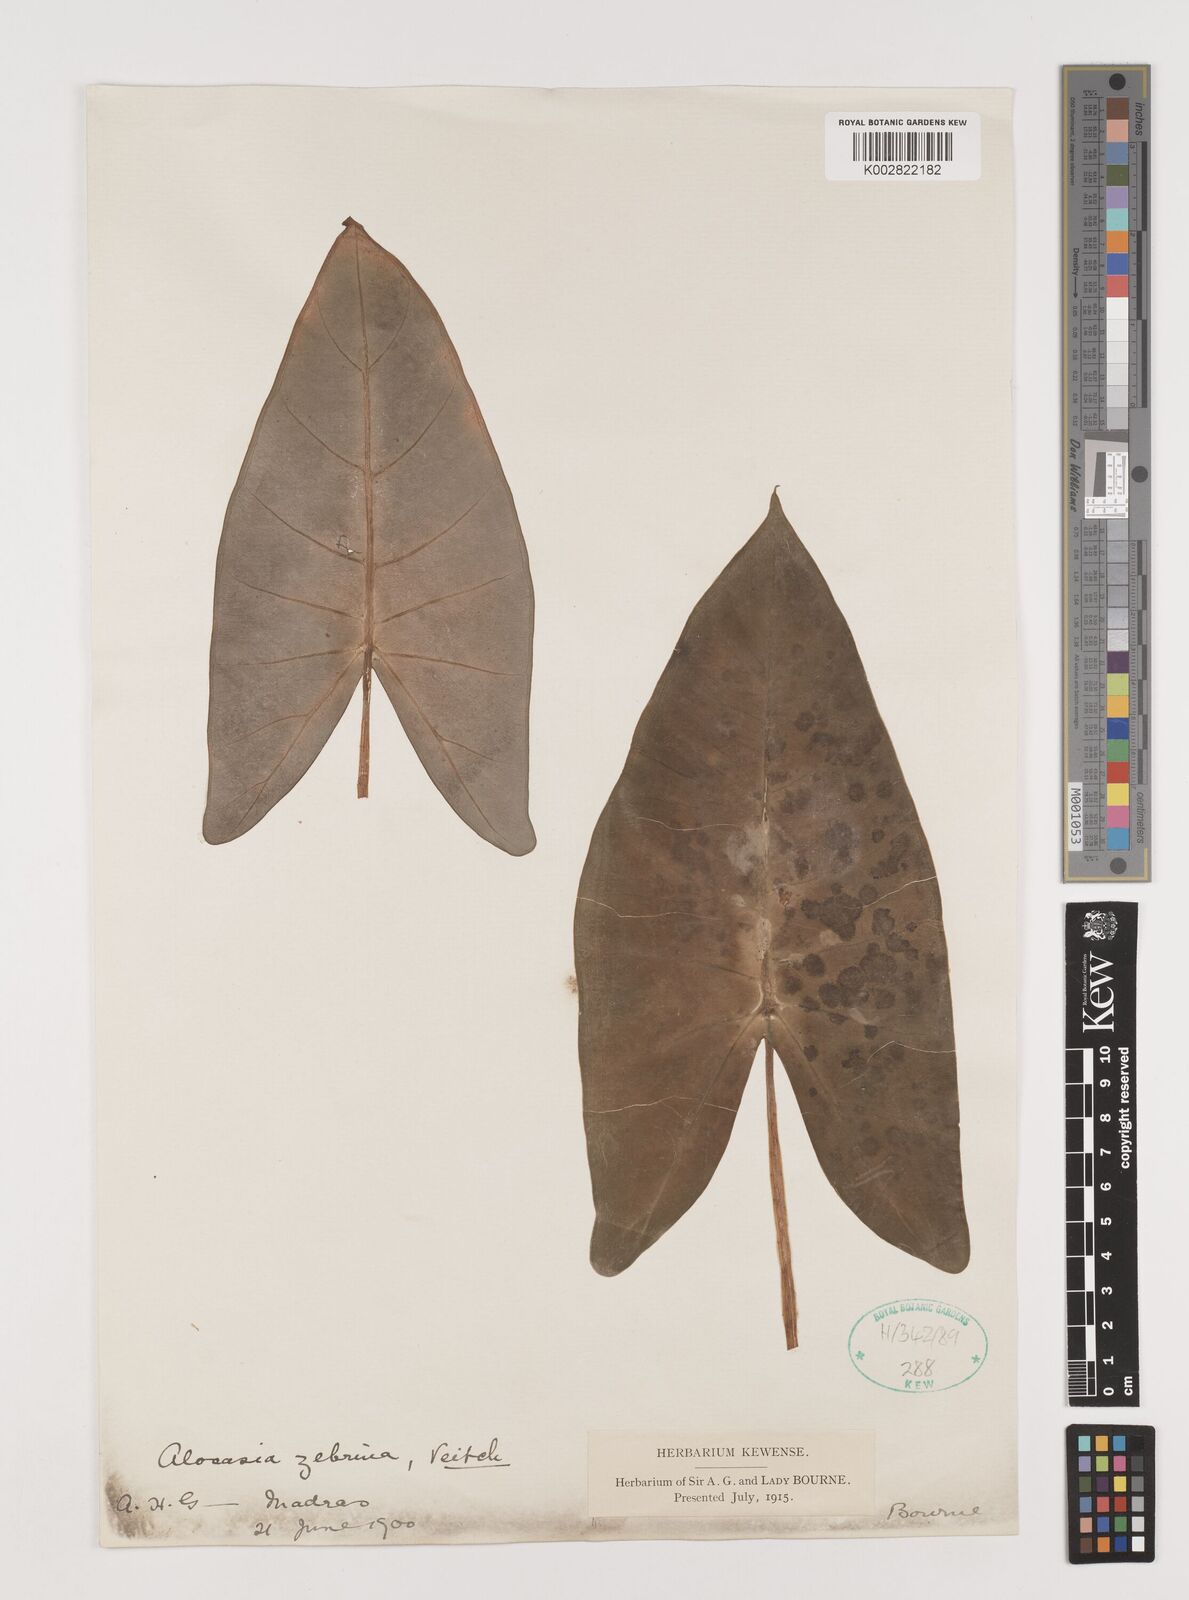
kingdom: Plantae
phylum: Tracheophyta
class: Liliopsida
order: Alismatales
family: Araceae
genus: Alocasia
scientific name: Alocasia zebrina
